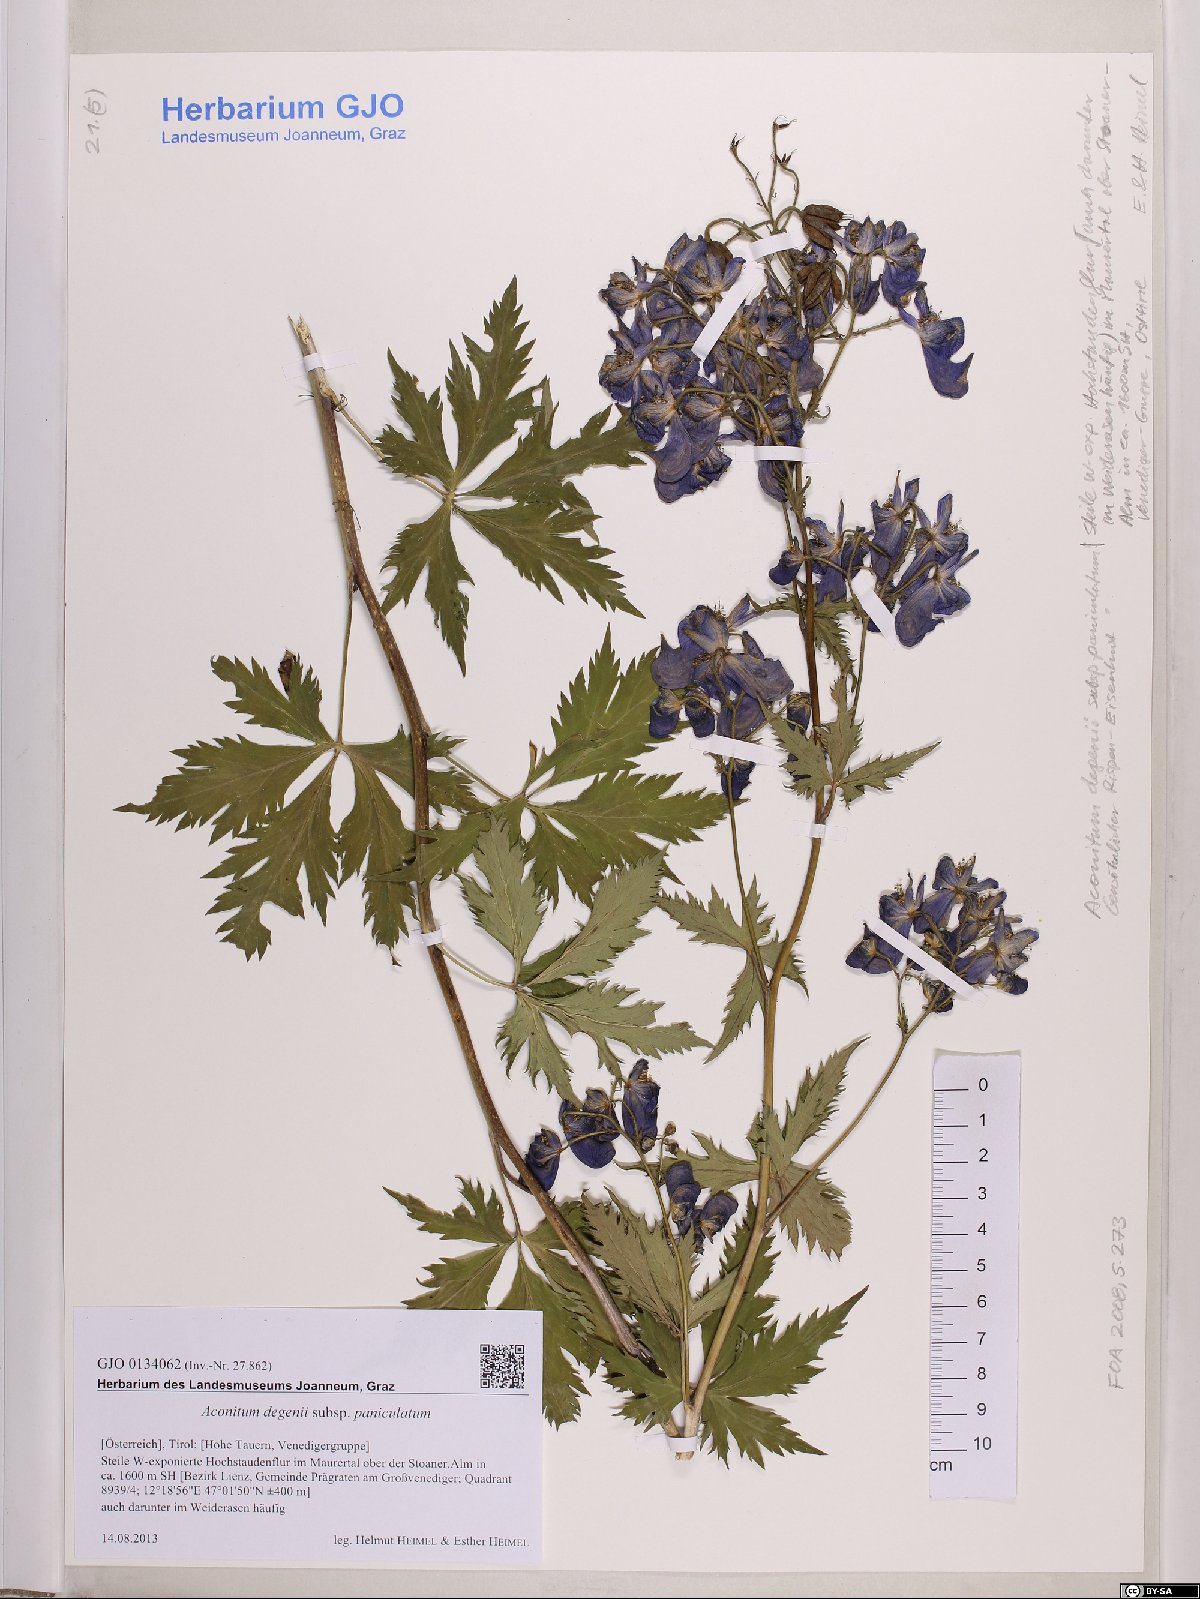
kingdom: Plantae
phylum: Tracheophyta
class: Magnoliopsida
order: Ranunculales
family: Ranunculaceae
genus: Aconitum
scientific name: Aconitum degenii
